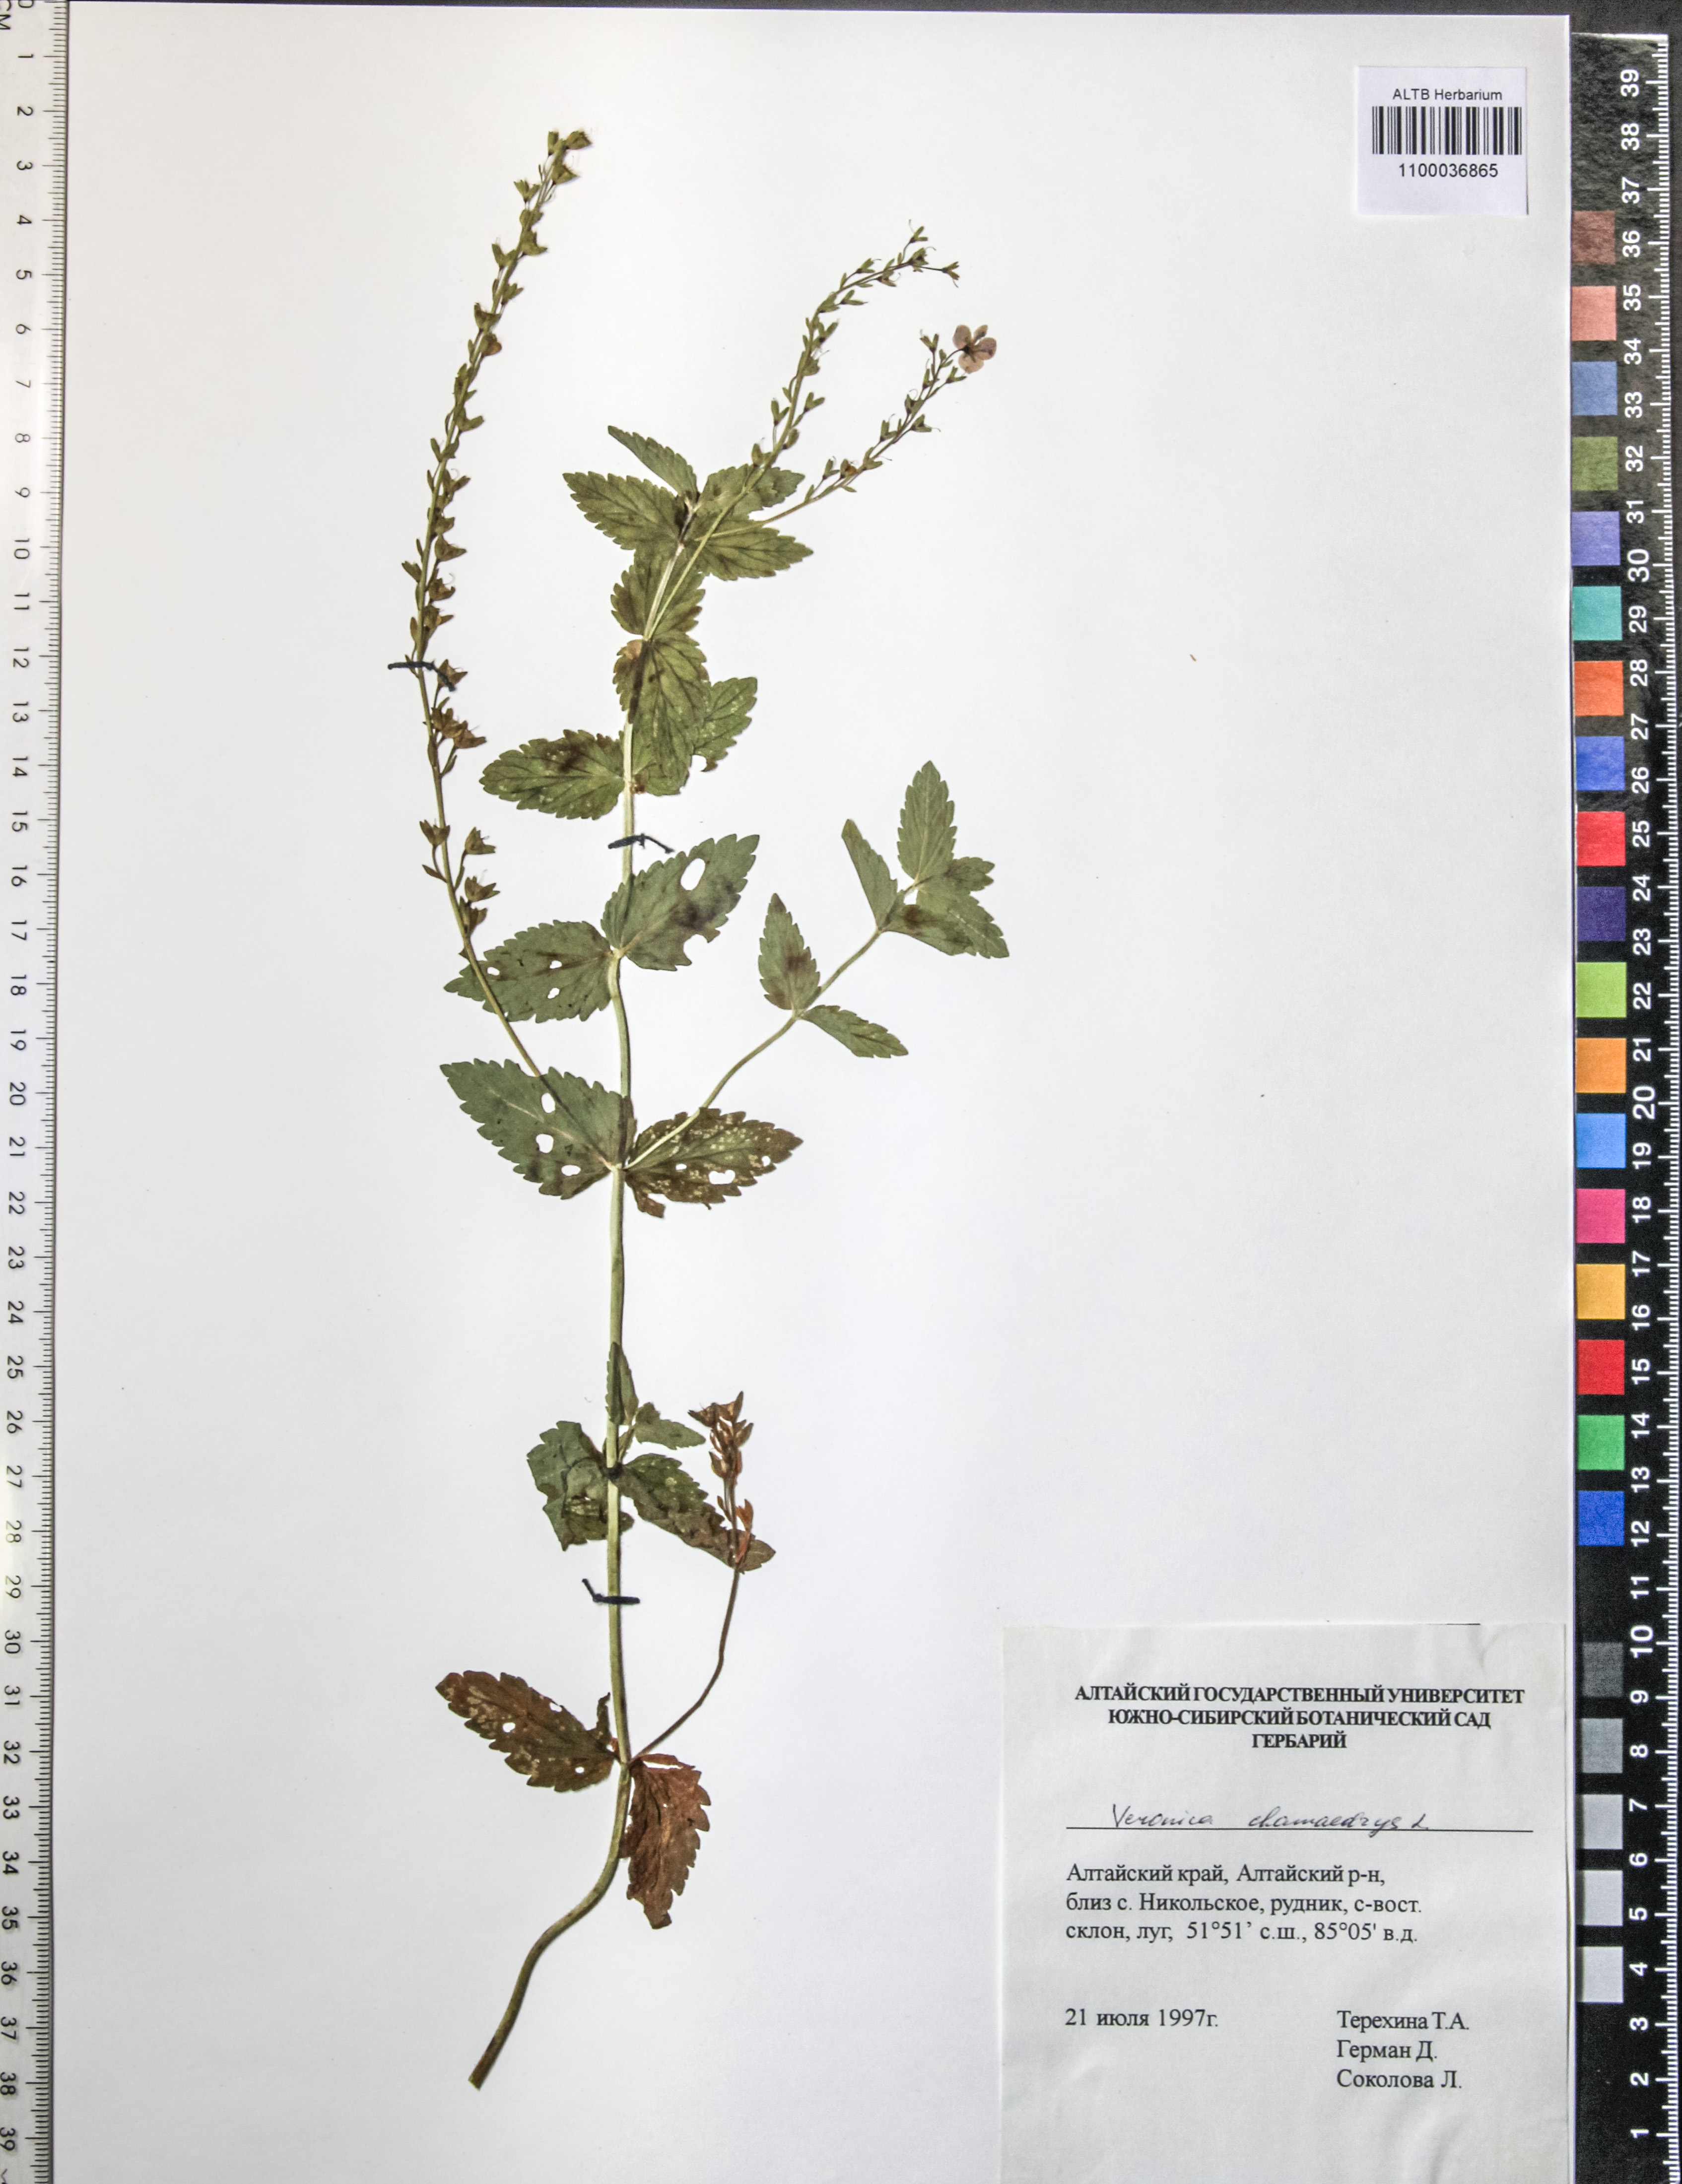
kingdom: Plantae
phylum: Tracheophyta
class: Magnoliopsida
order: Lamiales
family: Plantaginaceae
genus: Veronica
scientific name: Veronica chamaedrys
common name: Germander speedwell
